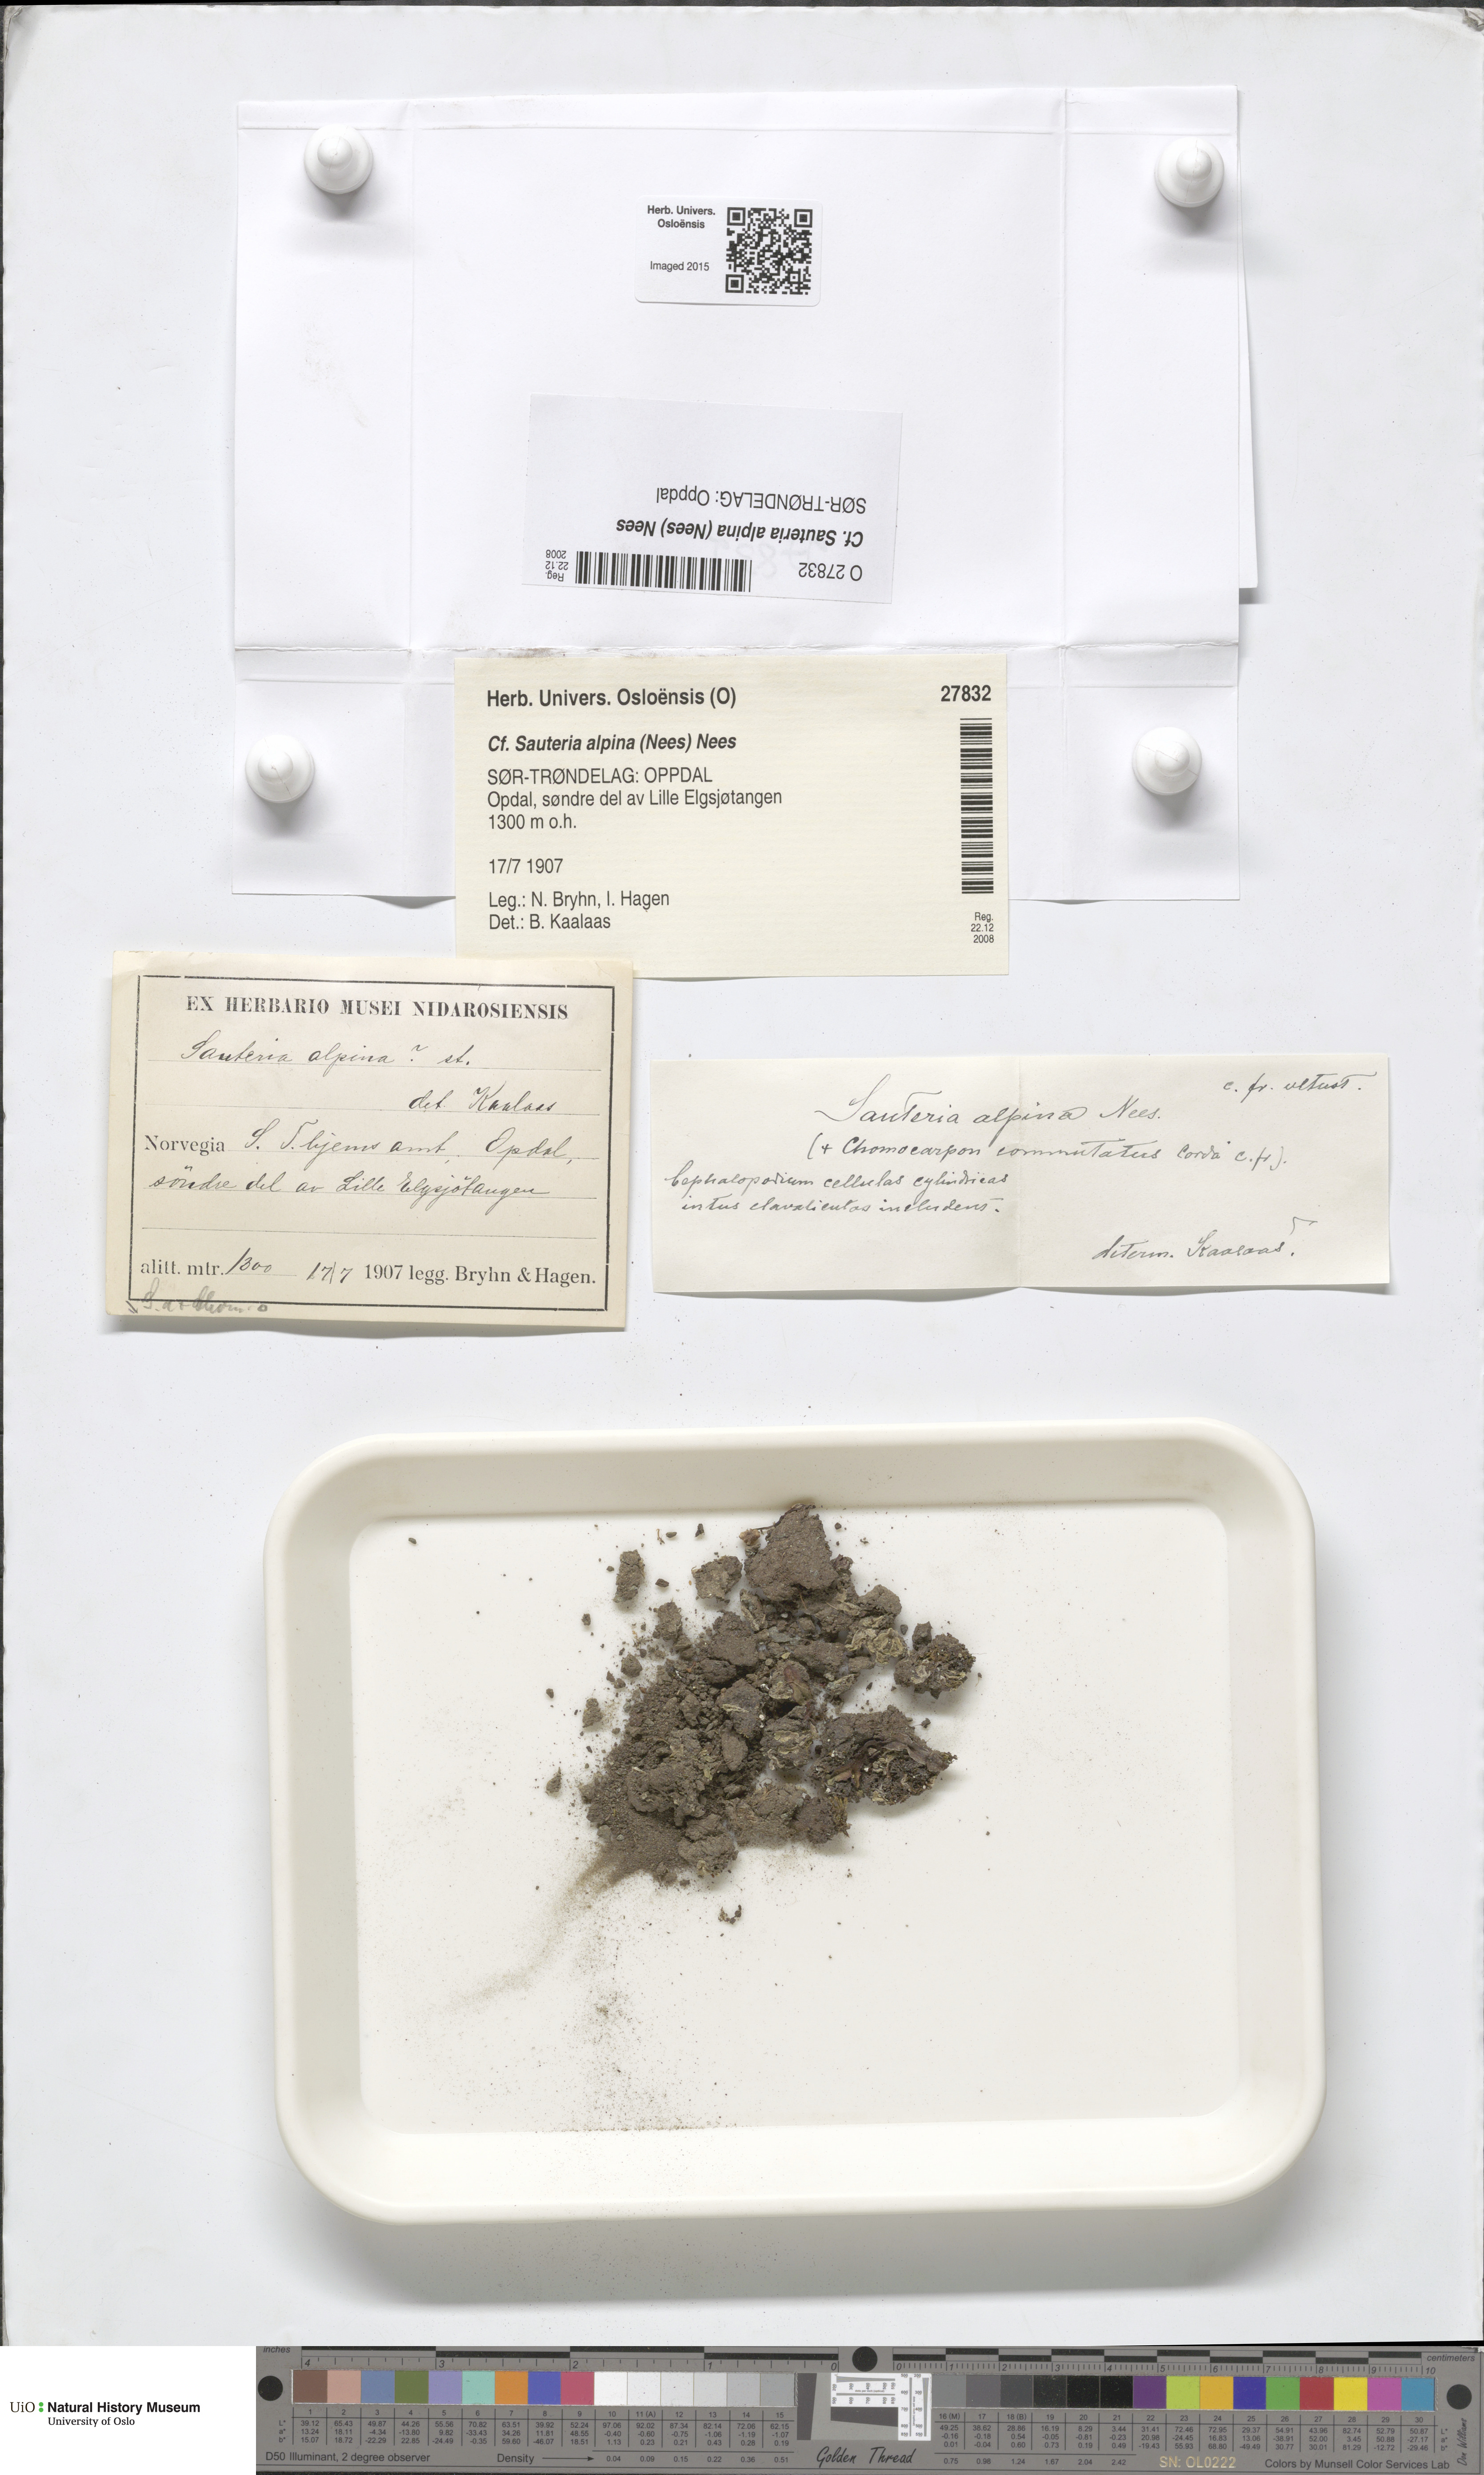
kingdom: Plantae
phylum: Marchantiophyta
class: Marchantiopsida
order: Marchantiales
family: Cleveaceae
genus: Sauteria
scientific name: Sauteria alpina
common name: Snow lungwort
